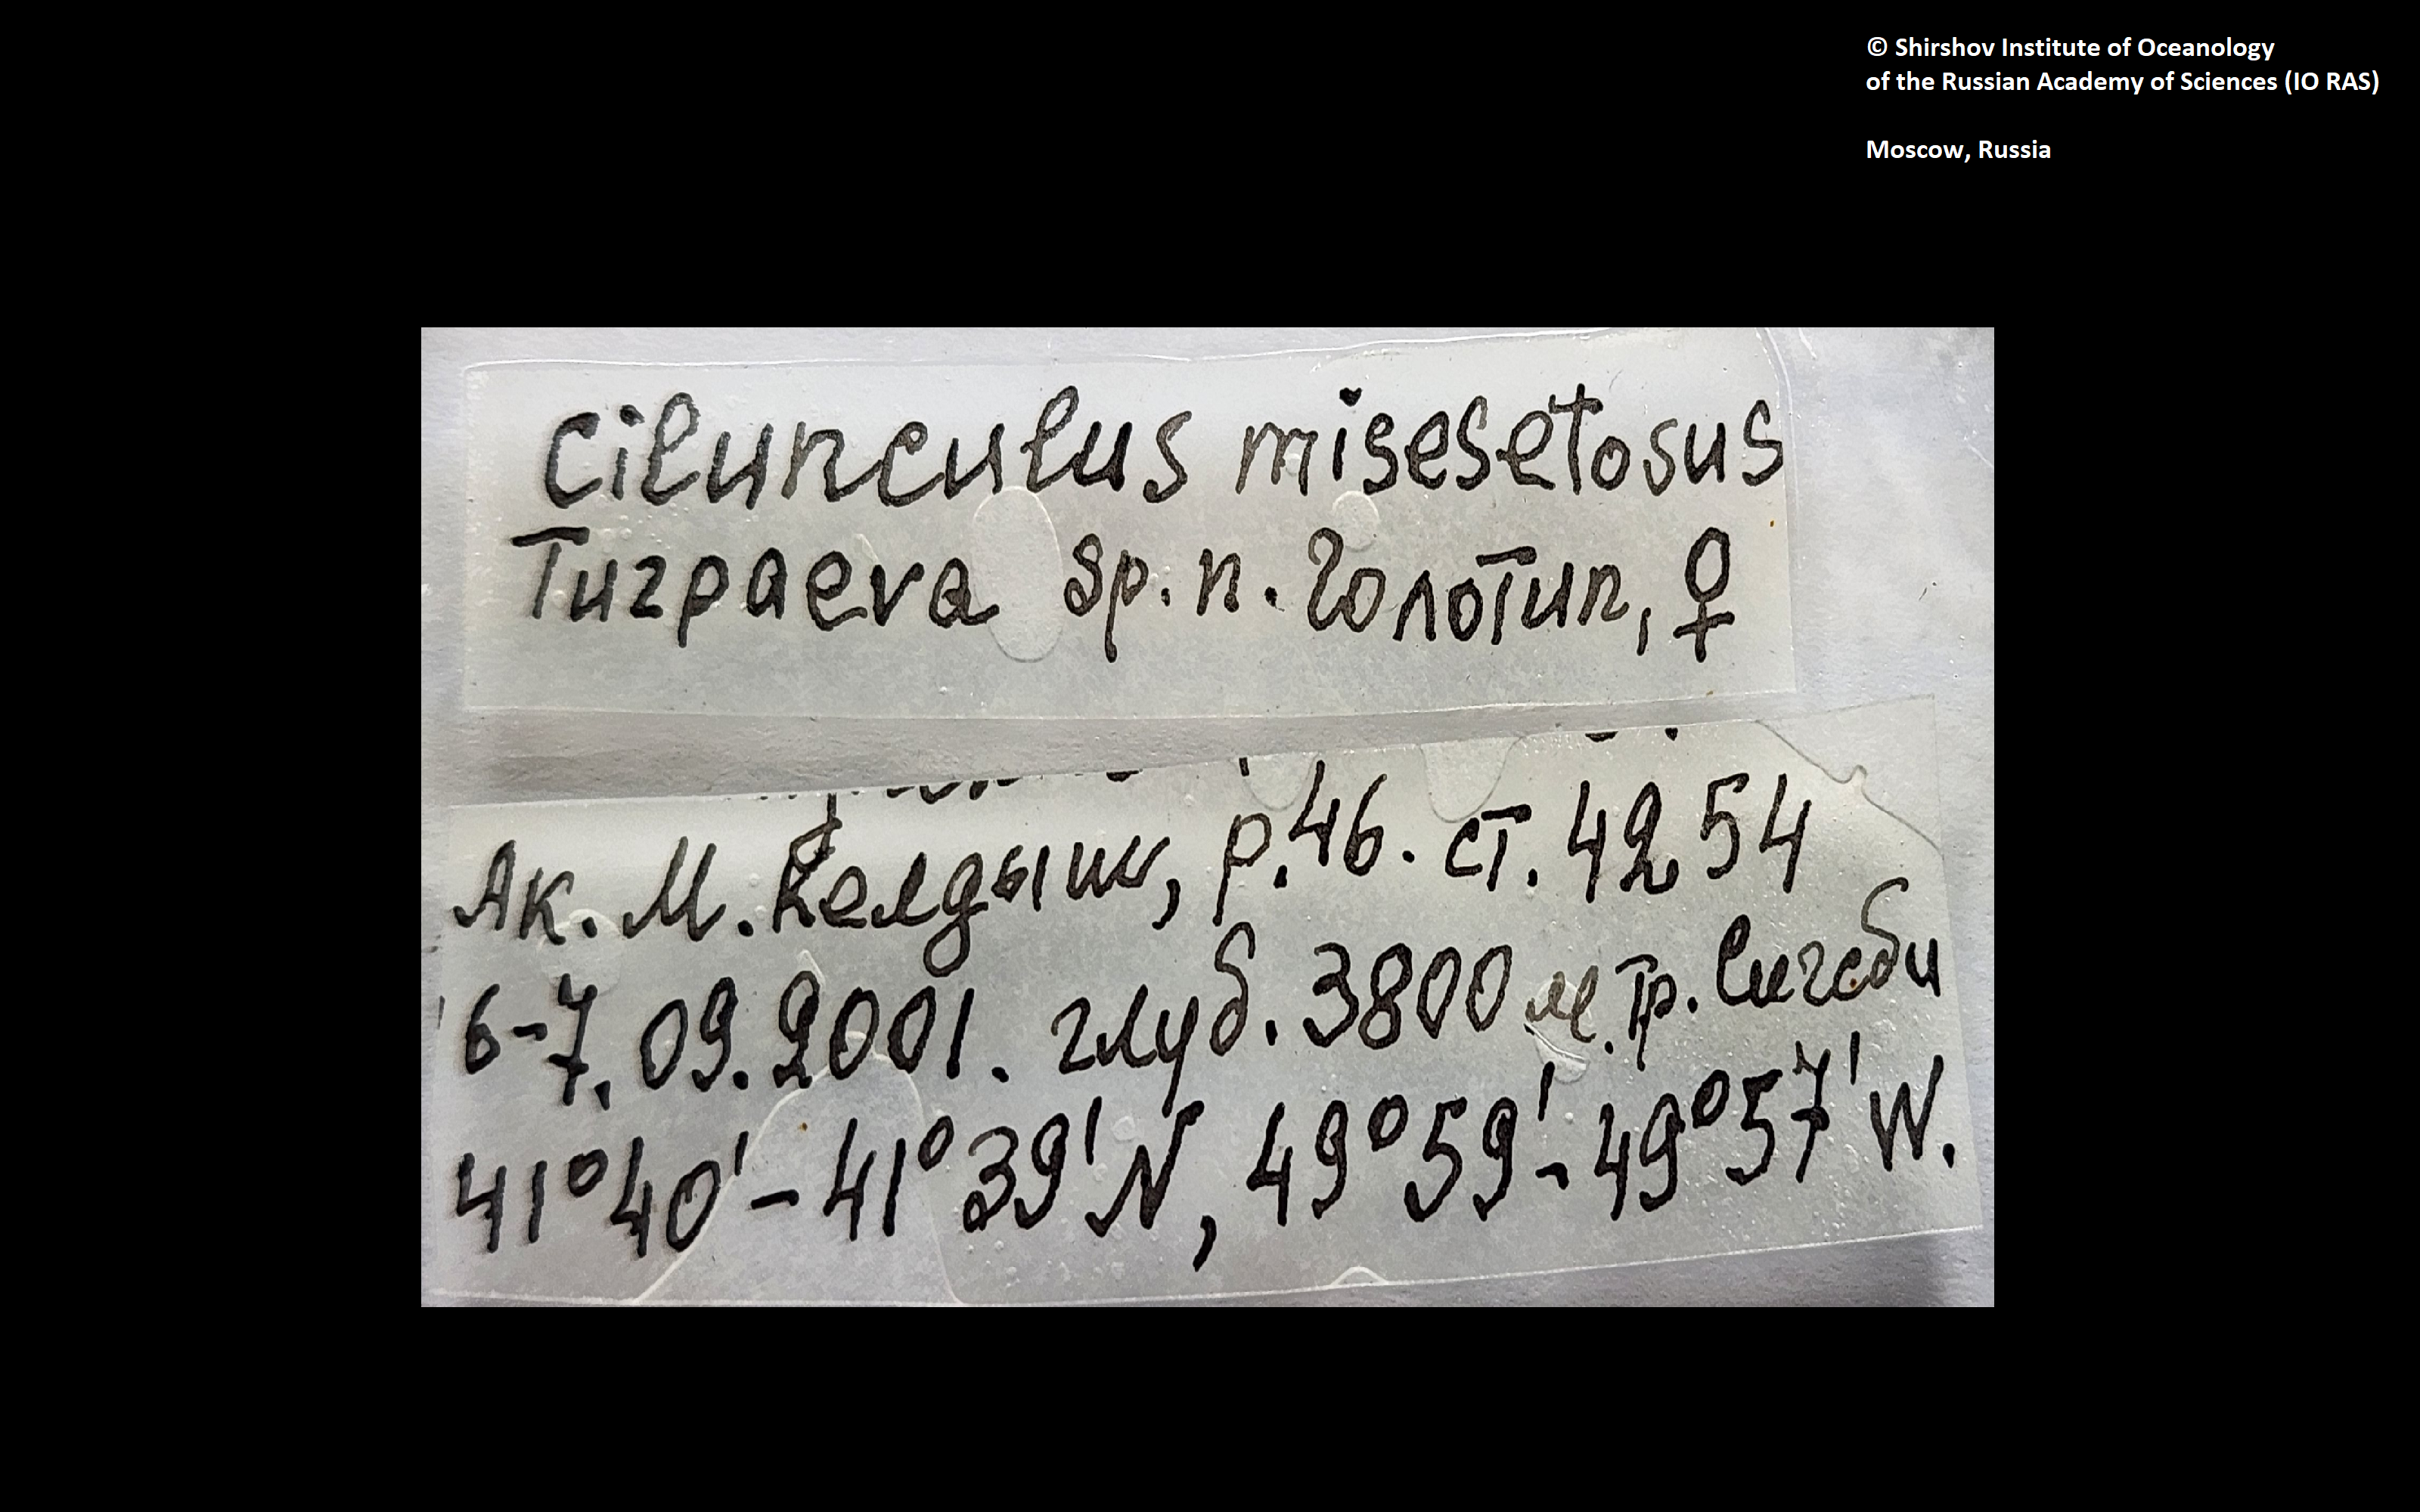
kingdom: Animalia
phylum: Arthropoda
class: Pycnogonida
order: Pantopoda
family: Ammotheidae
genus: Cilunculus
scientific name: Cilunculus misesetosus
